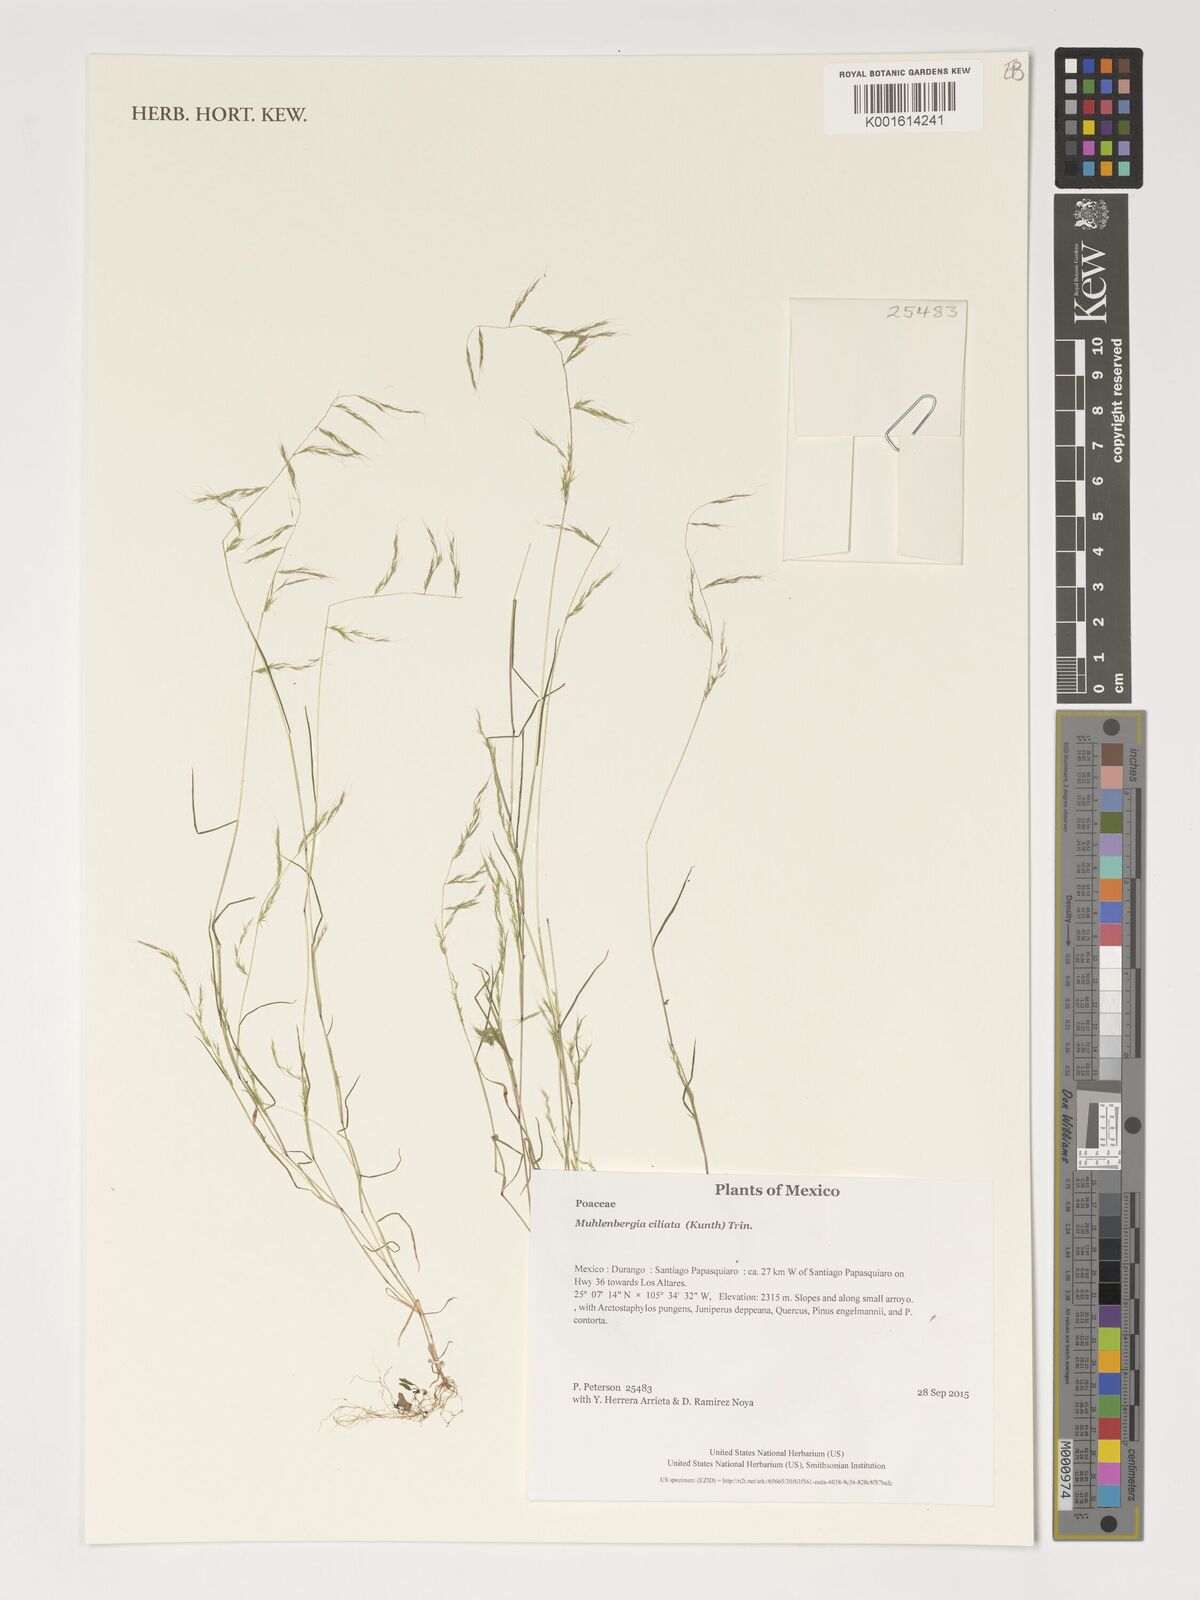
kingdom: Plantae
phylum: Tracheophyta
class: Liliopsida
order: Poales
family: Poaceae
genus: Muhlenbergia
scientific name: Muhlenbergia ciliata
